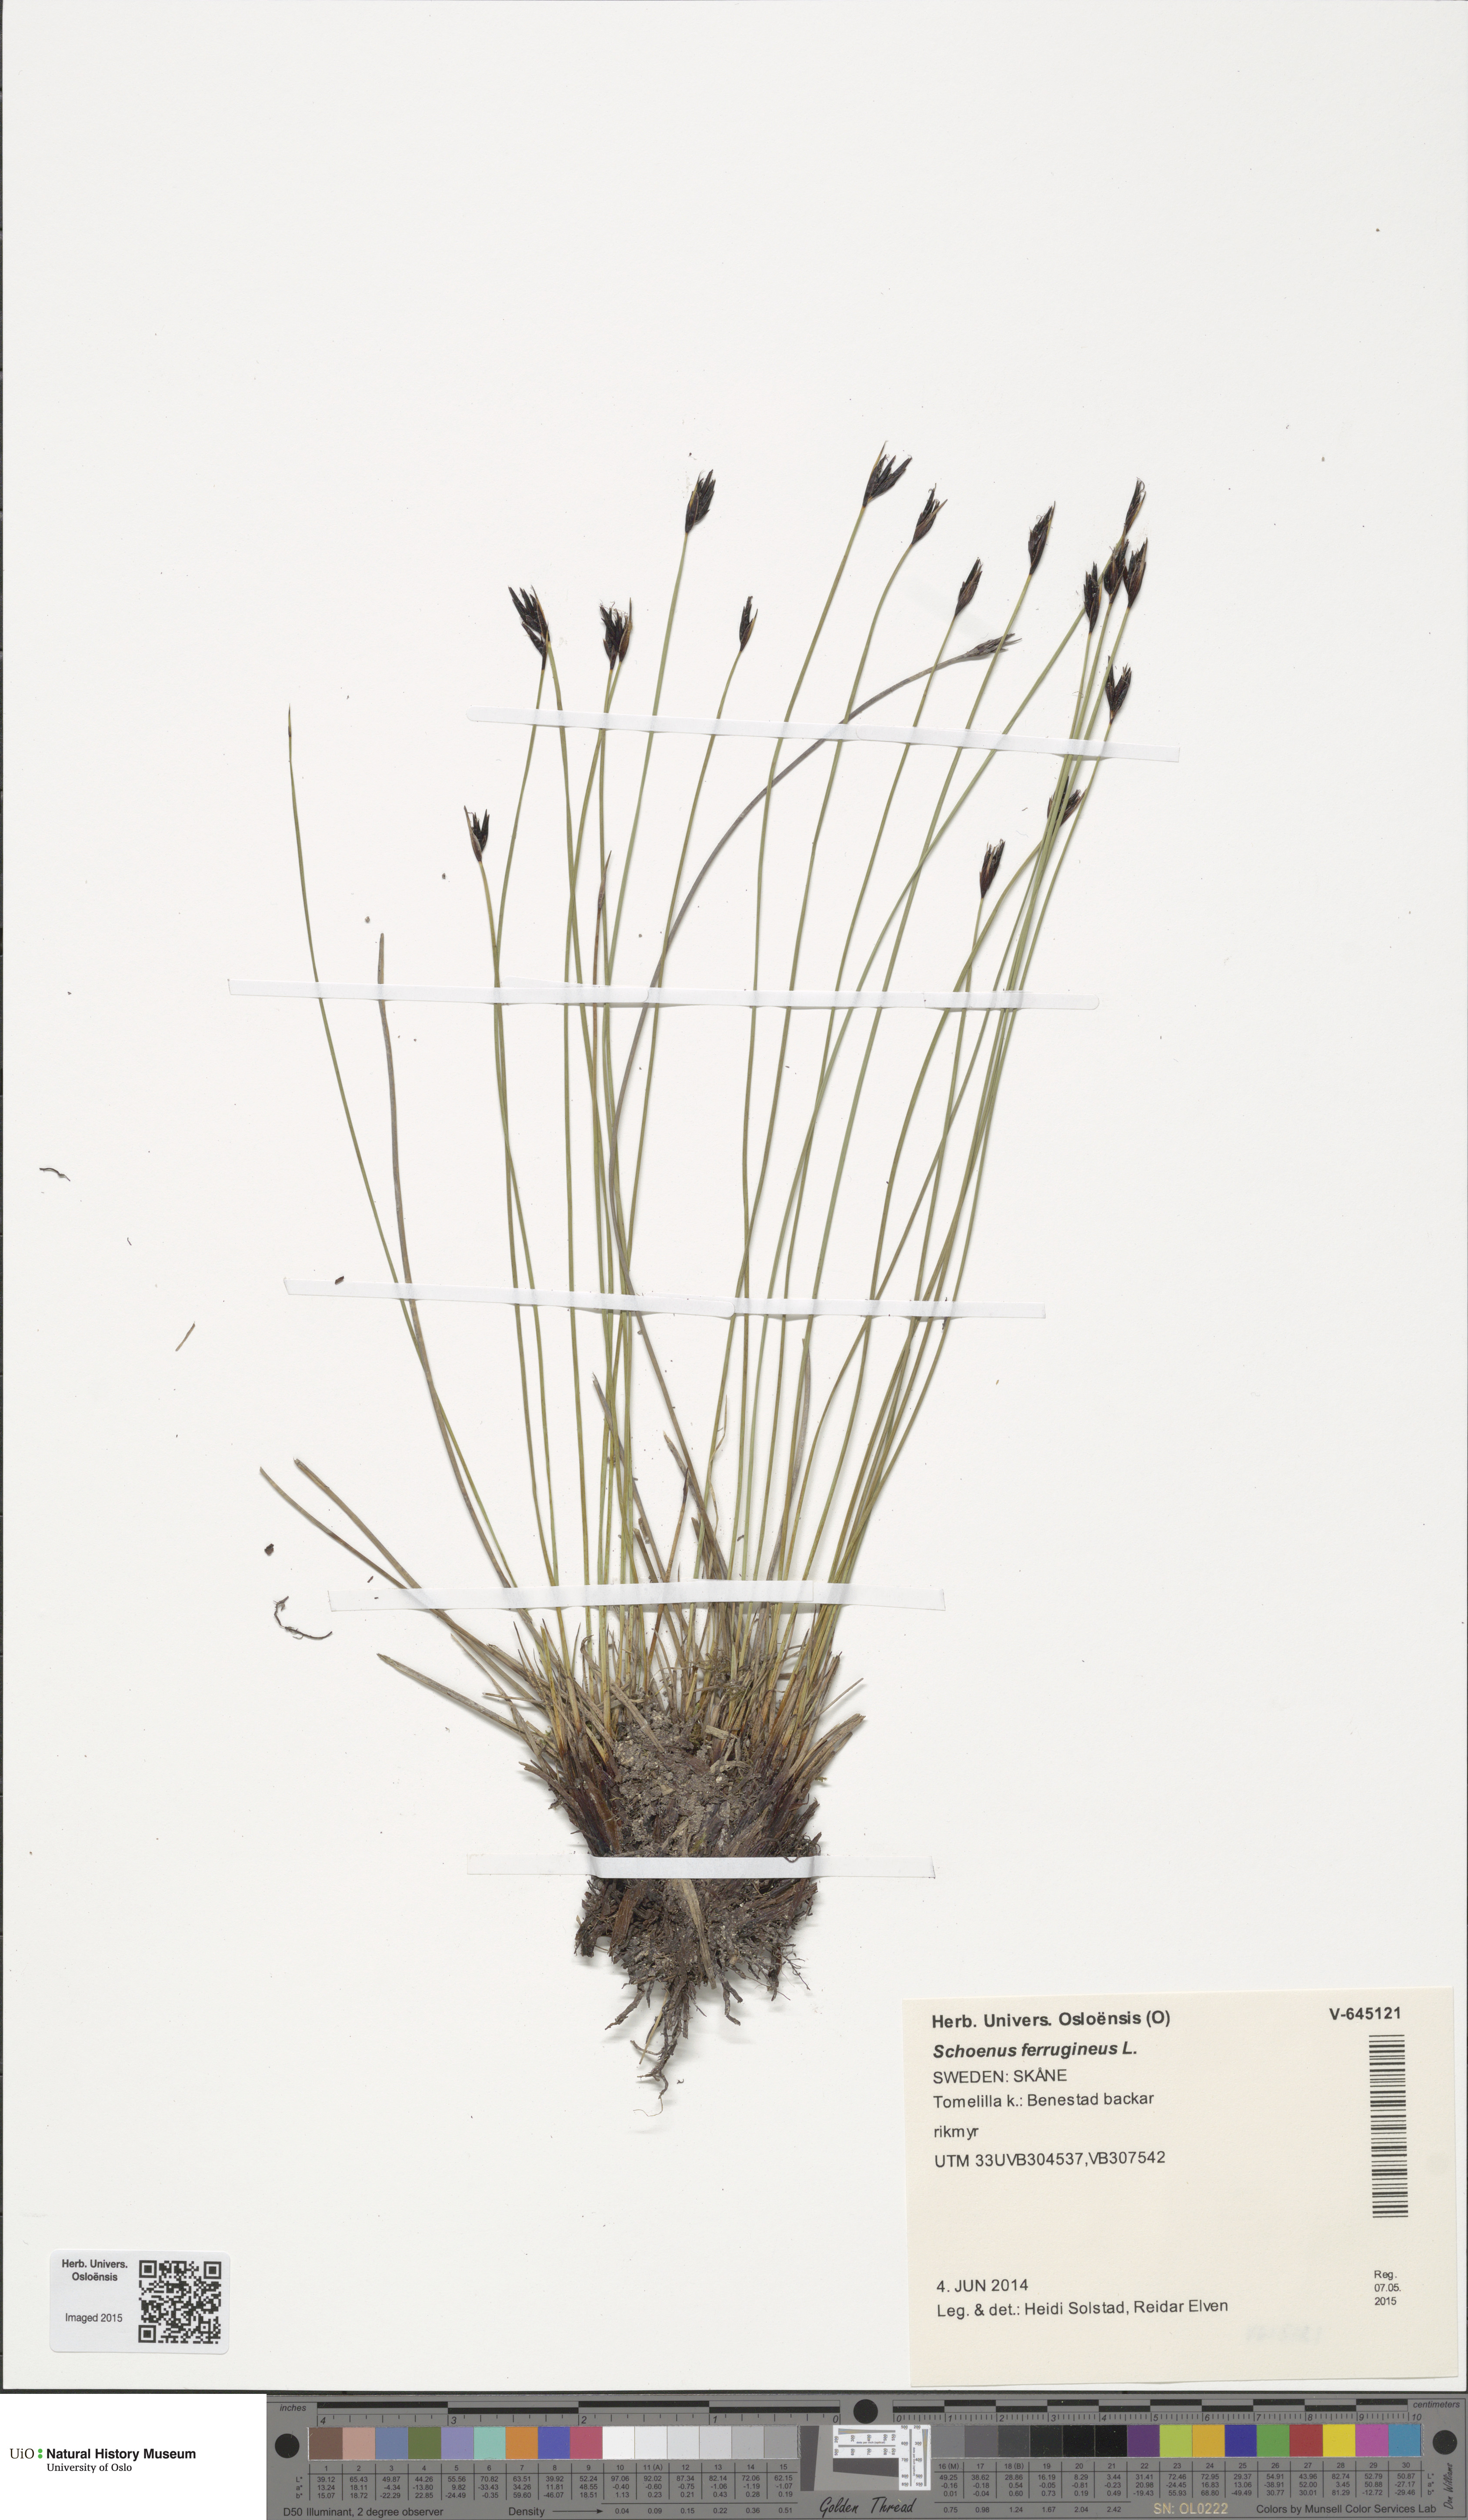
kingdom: Plantae
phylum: Tracheophyta
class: Liliopsida
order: Poales
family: Cyperaceae
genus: Schoenus
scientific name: Schoenus ferrugineus
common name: Brown bog-rush
